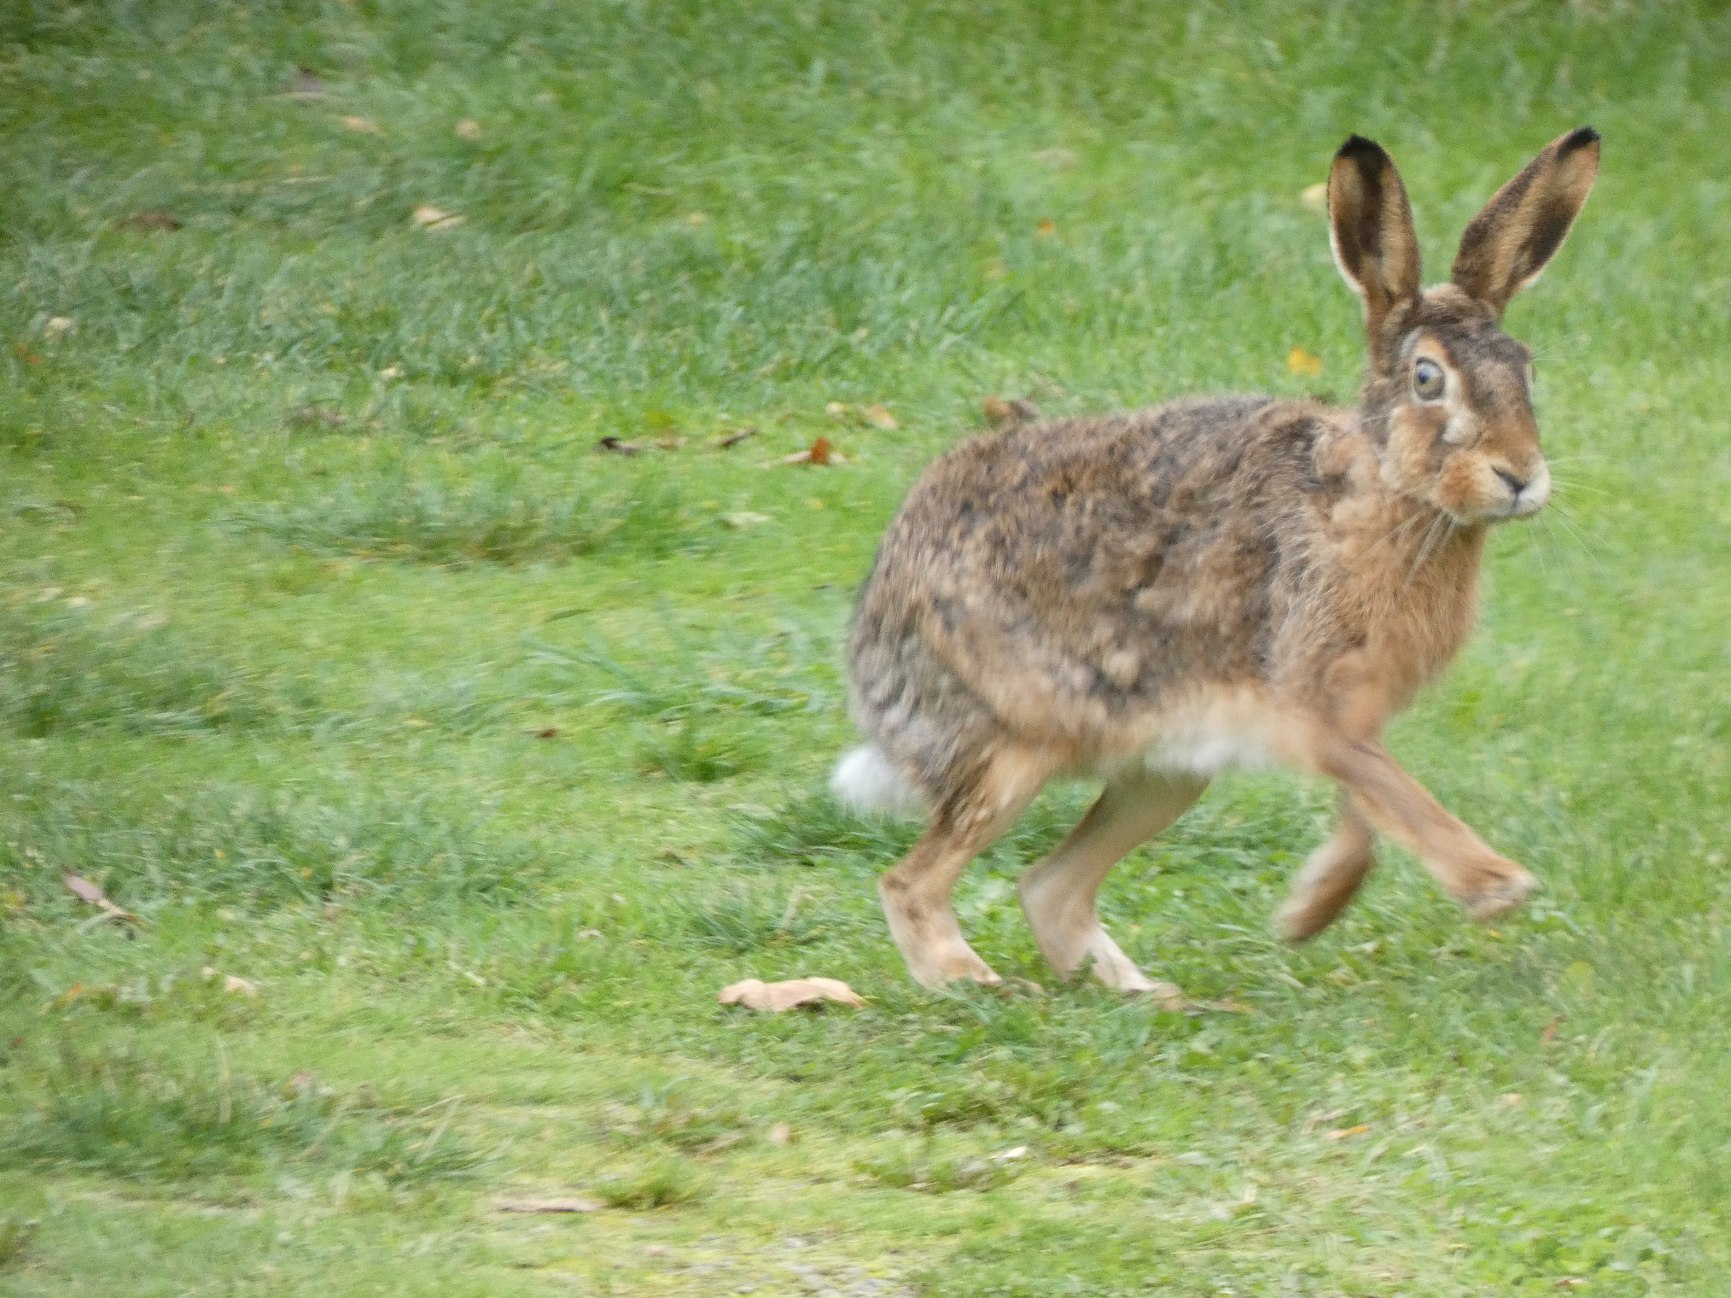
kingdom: Animalia
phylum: Chordata
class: Mammalia
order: Lagomorpha
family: Leporidae
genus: Lepus
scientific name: Lepus europaeus
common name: Hare
